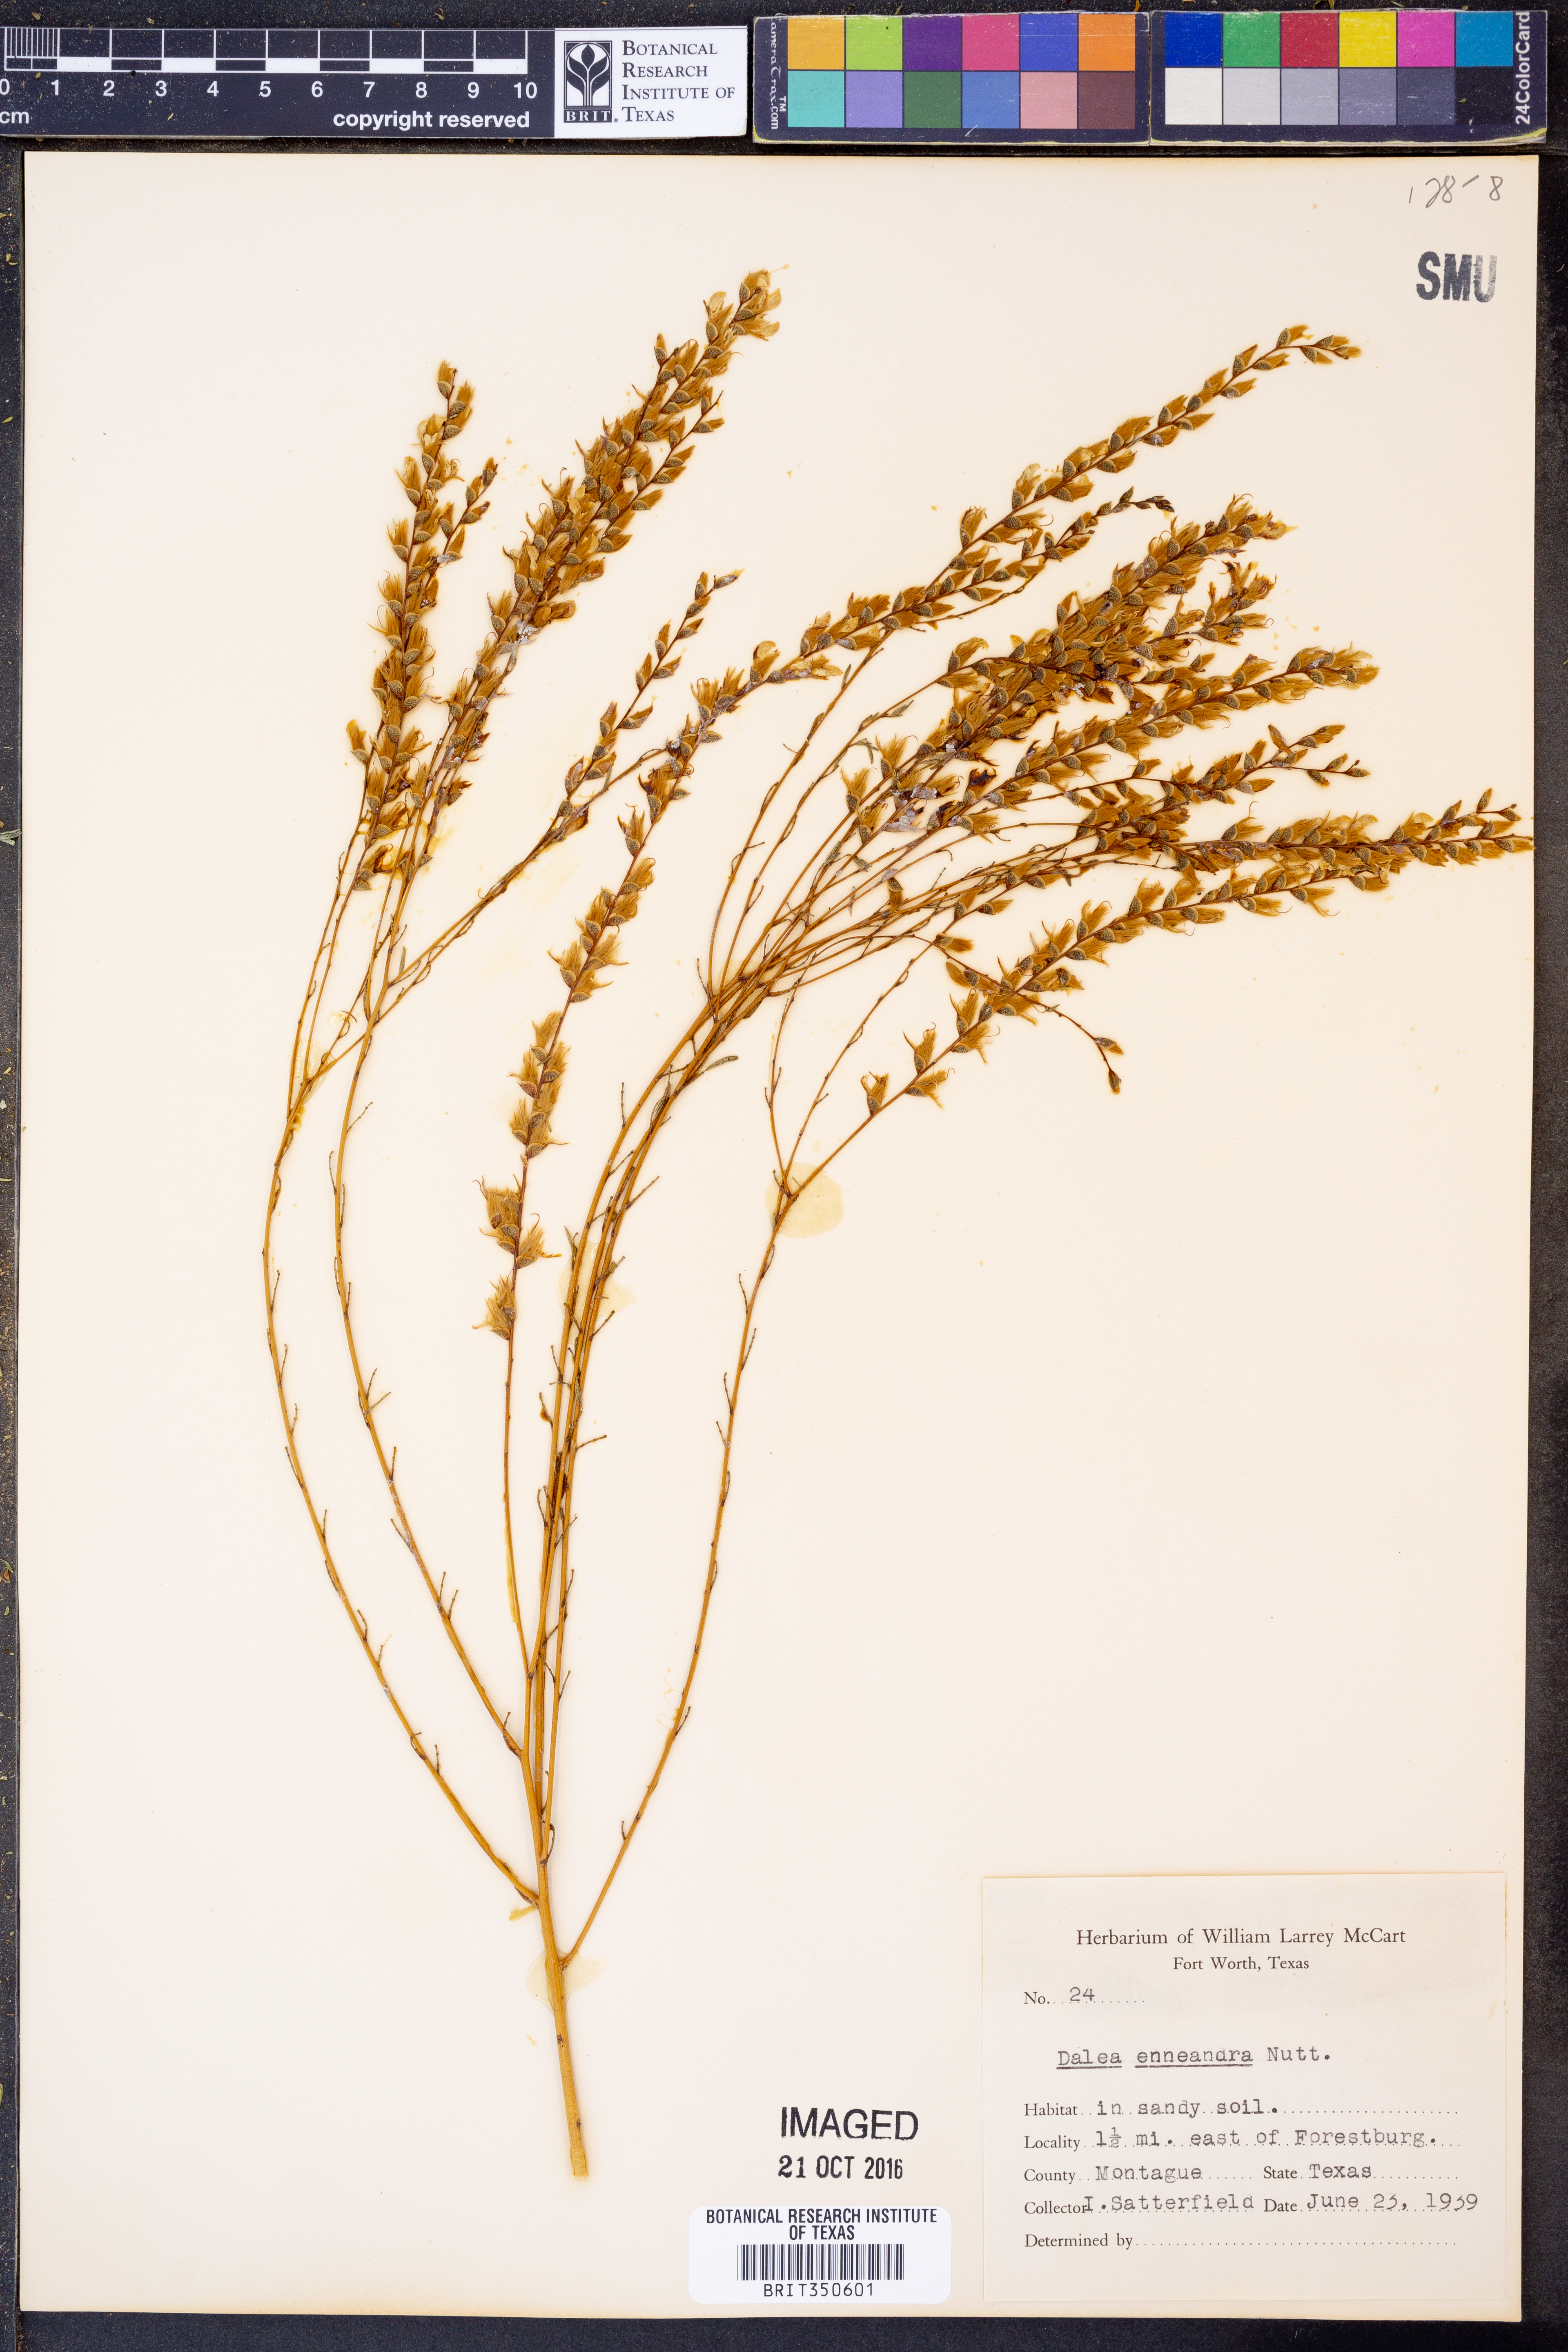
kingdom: Plantae
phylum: Tracheophyta
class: Magnoliopsida
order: Fabales
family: Fabaceae
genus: Dalea
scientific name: Dalea enneandra
